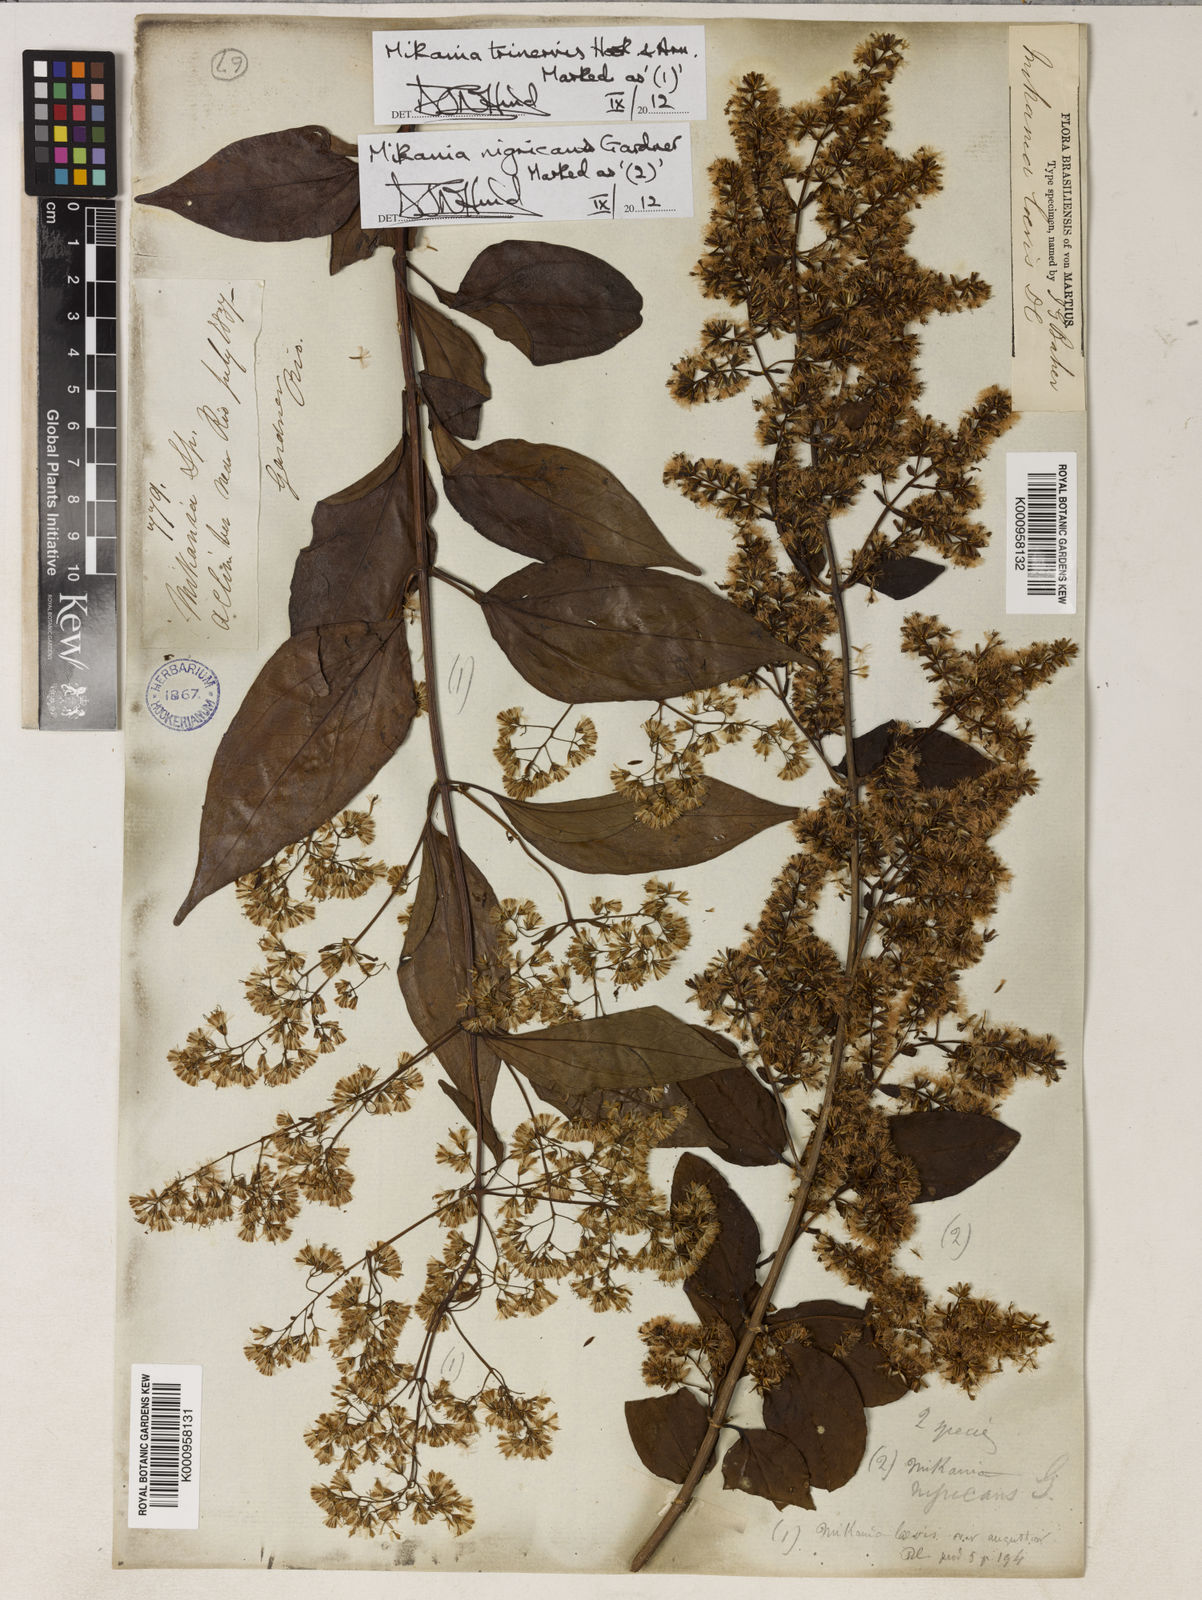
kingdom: Plantae
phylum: Tracheophyta
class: Magnoliopsida
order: Asterales
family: Asteraceae
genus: Mikania
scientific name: Mikania trinervis
